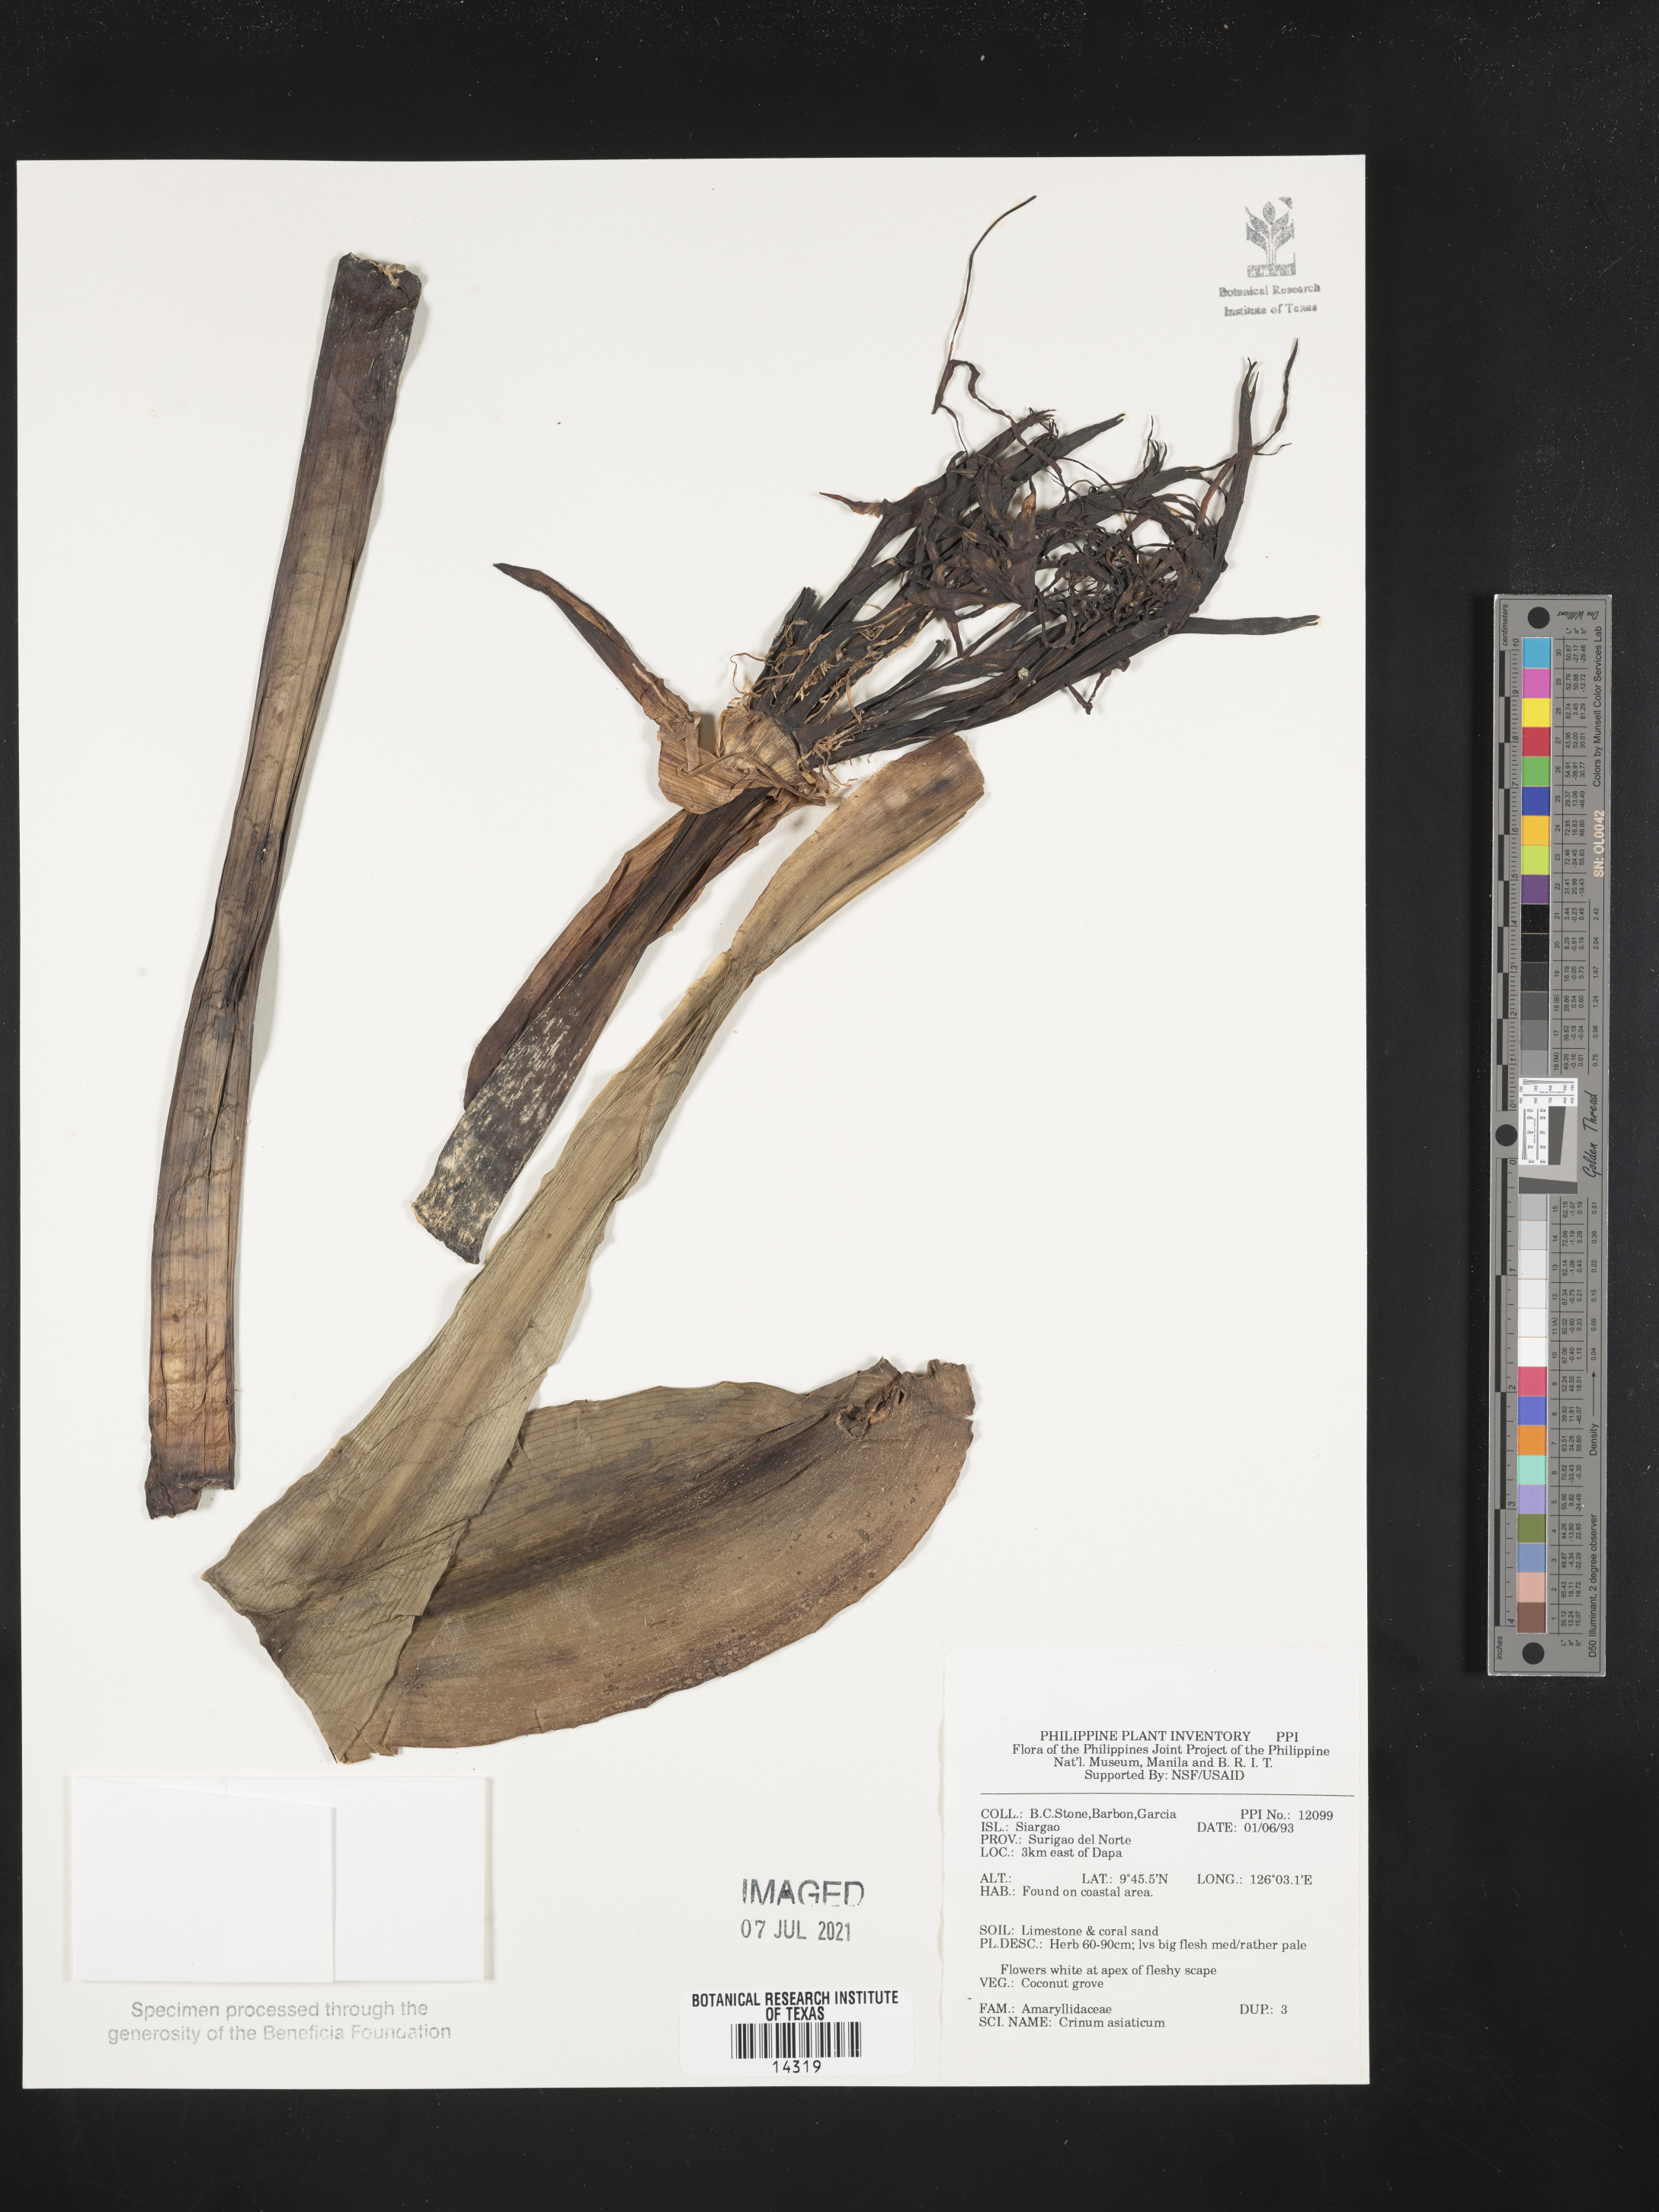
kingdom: Plantae
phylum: Tracheophyta
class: Liliopsida
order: Asparagales
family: Amaryllidaceae
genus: Crinum
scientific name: Crinum asiaticum
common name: Poisonbulb
